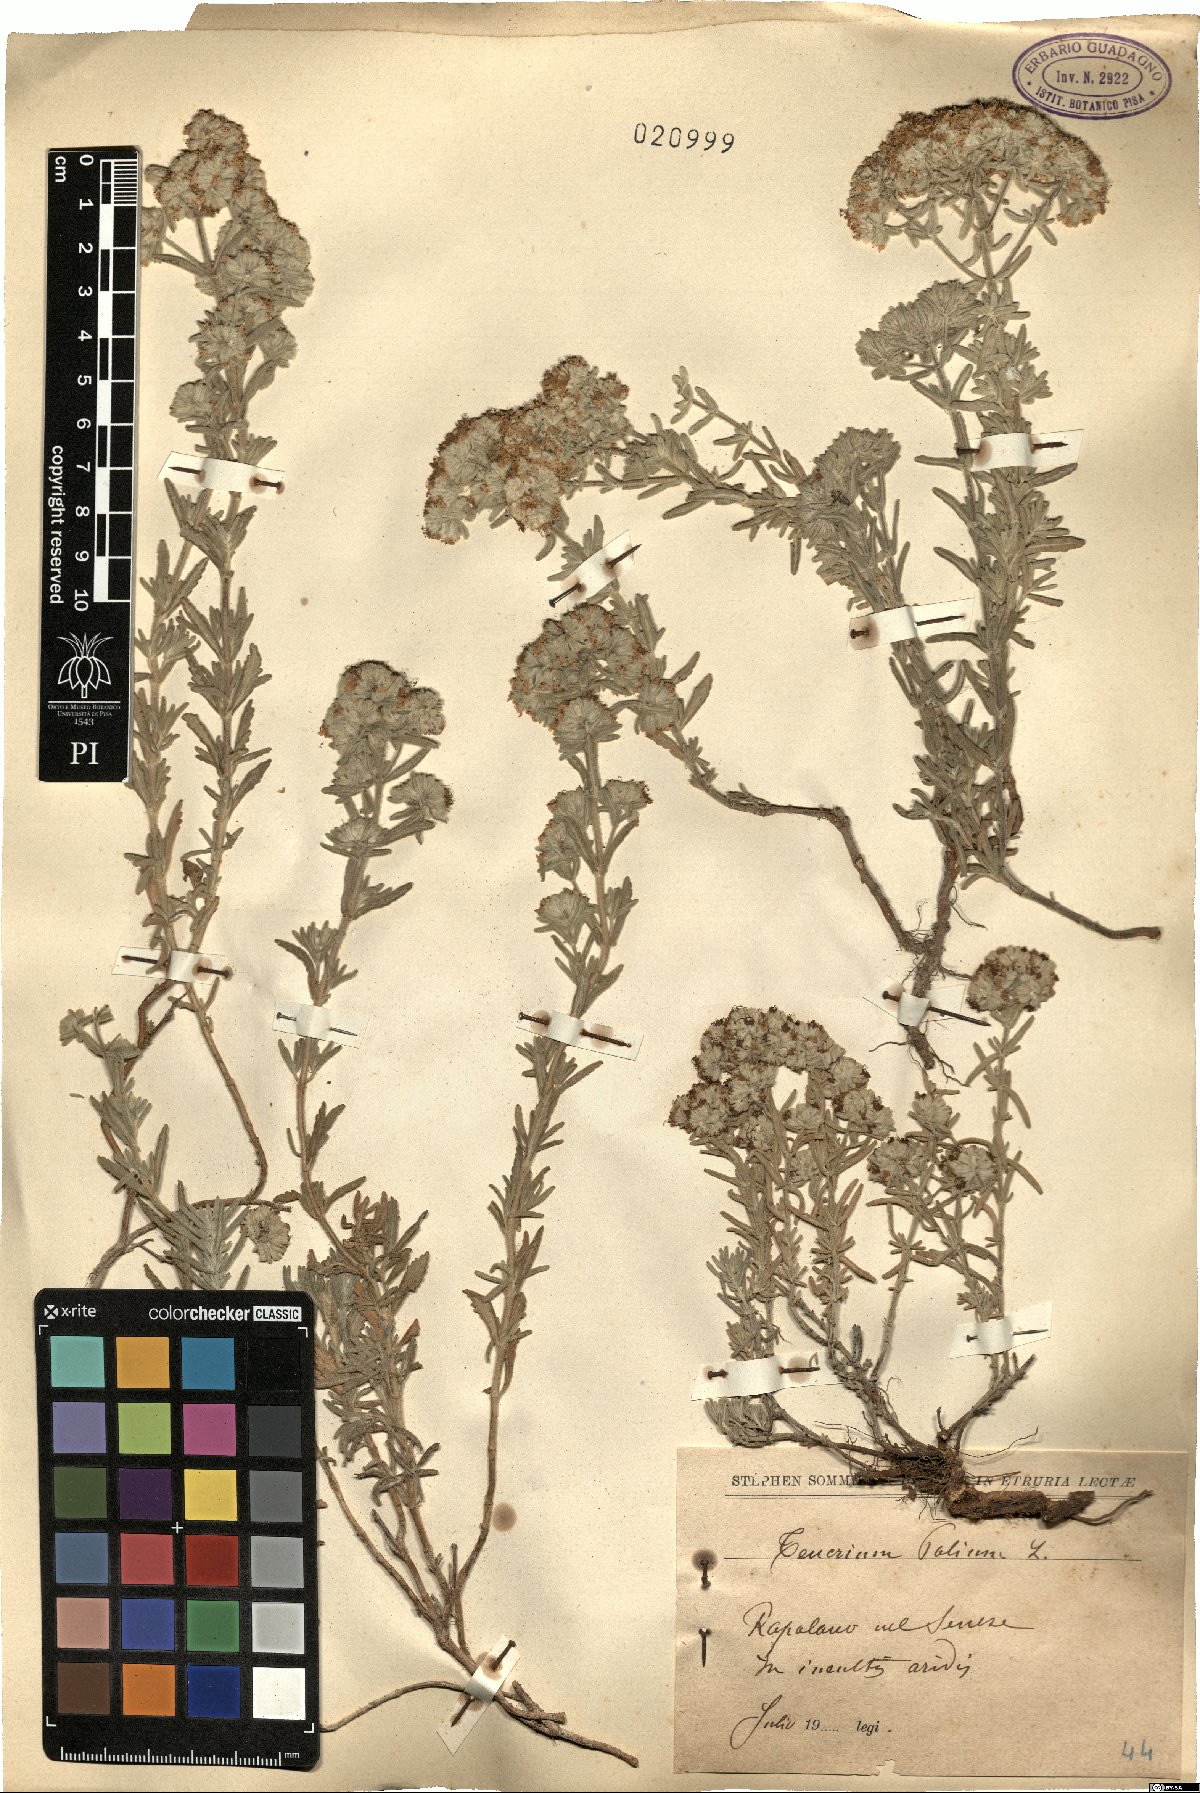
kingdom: Plantae
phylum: Tracheophyta
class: Magnoliopsida
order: Lamiales
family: Lamiaceae
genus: Teucrium
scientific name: Teucrium polium
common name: Poley
